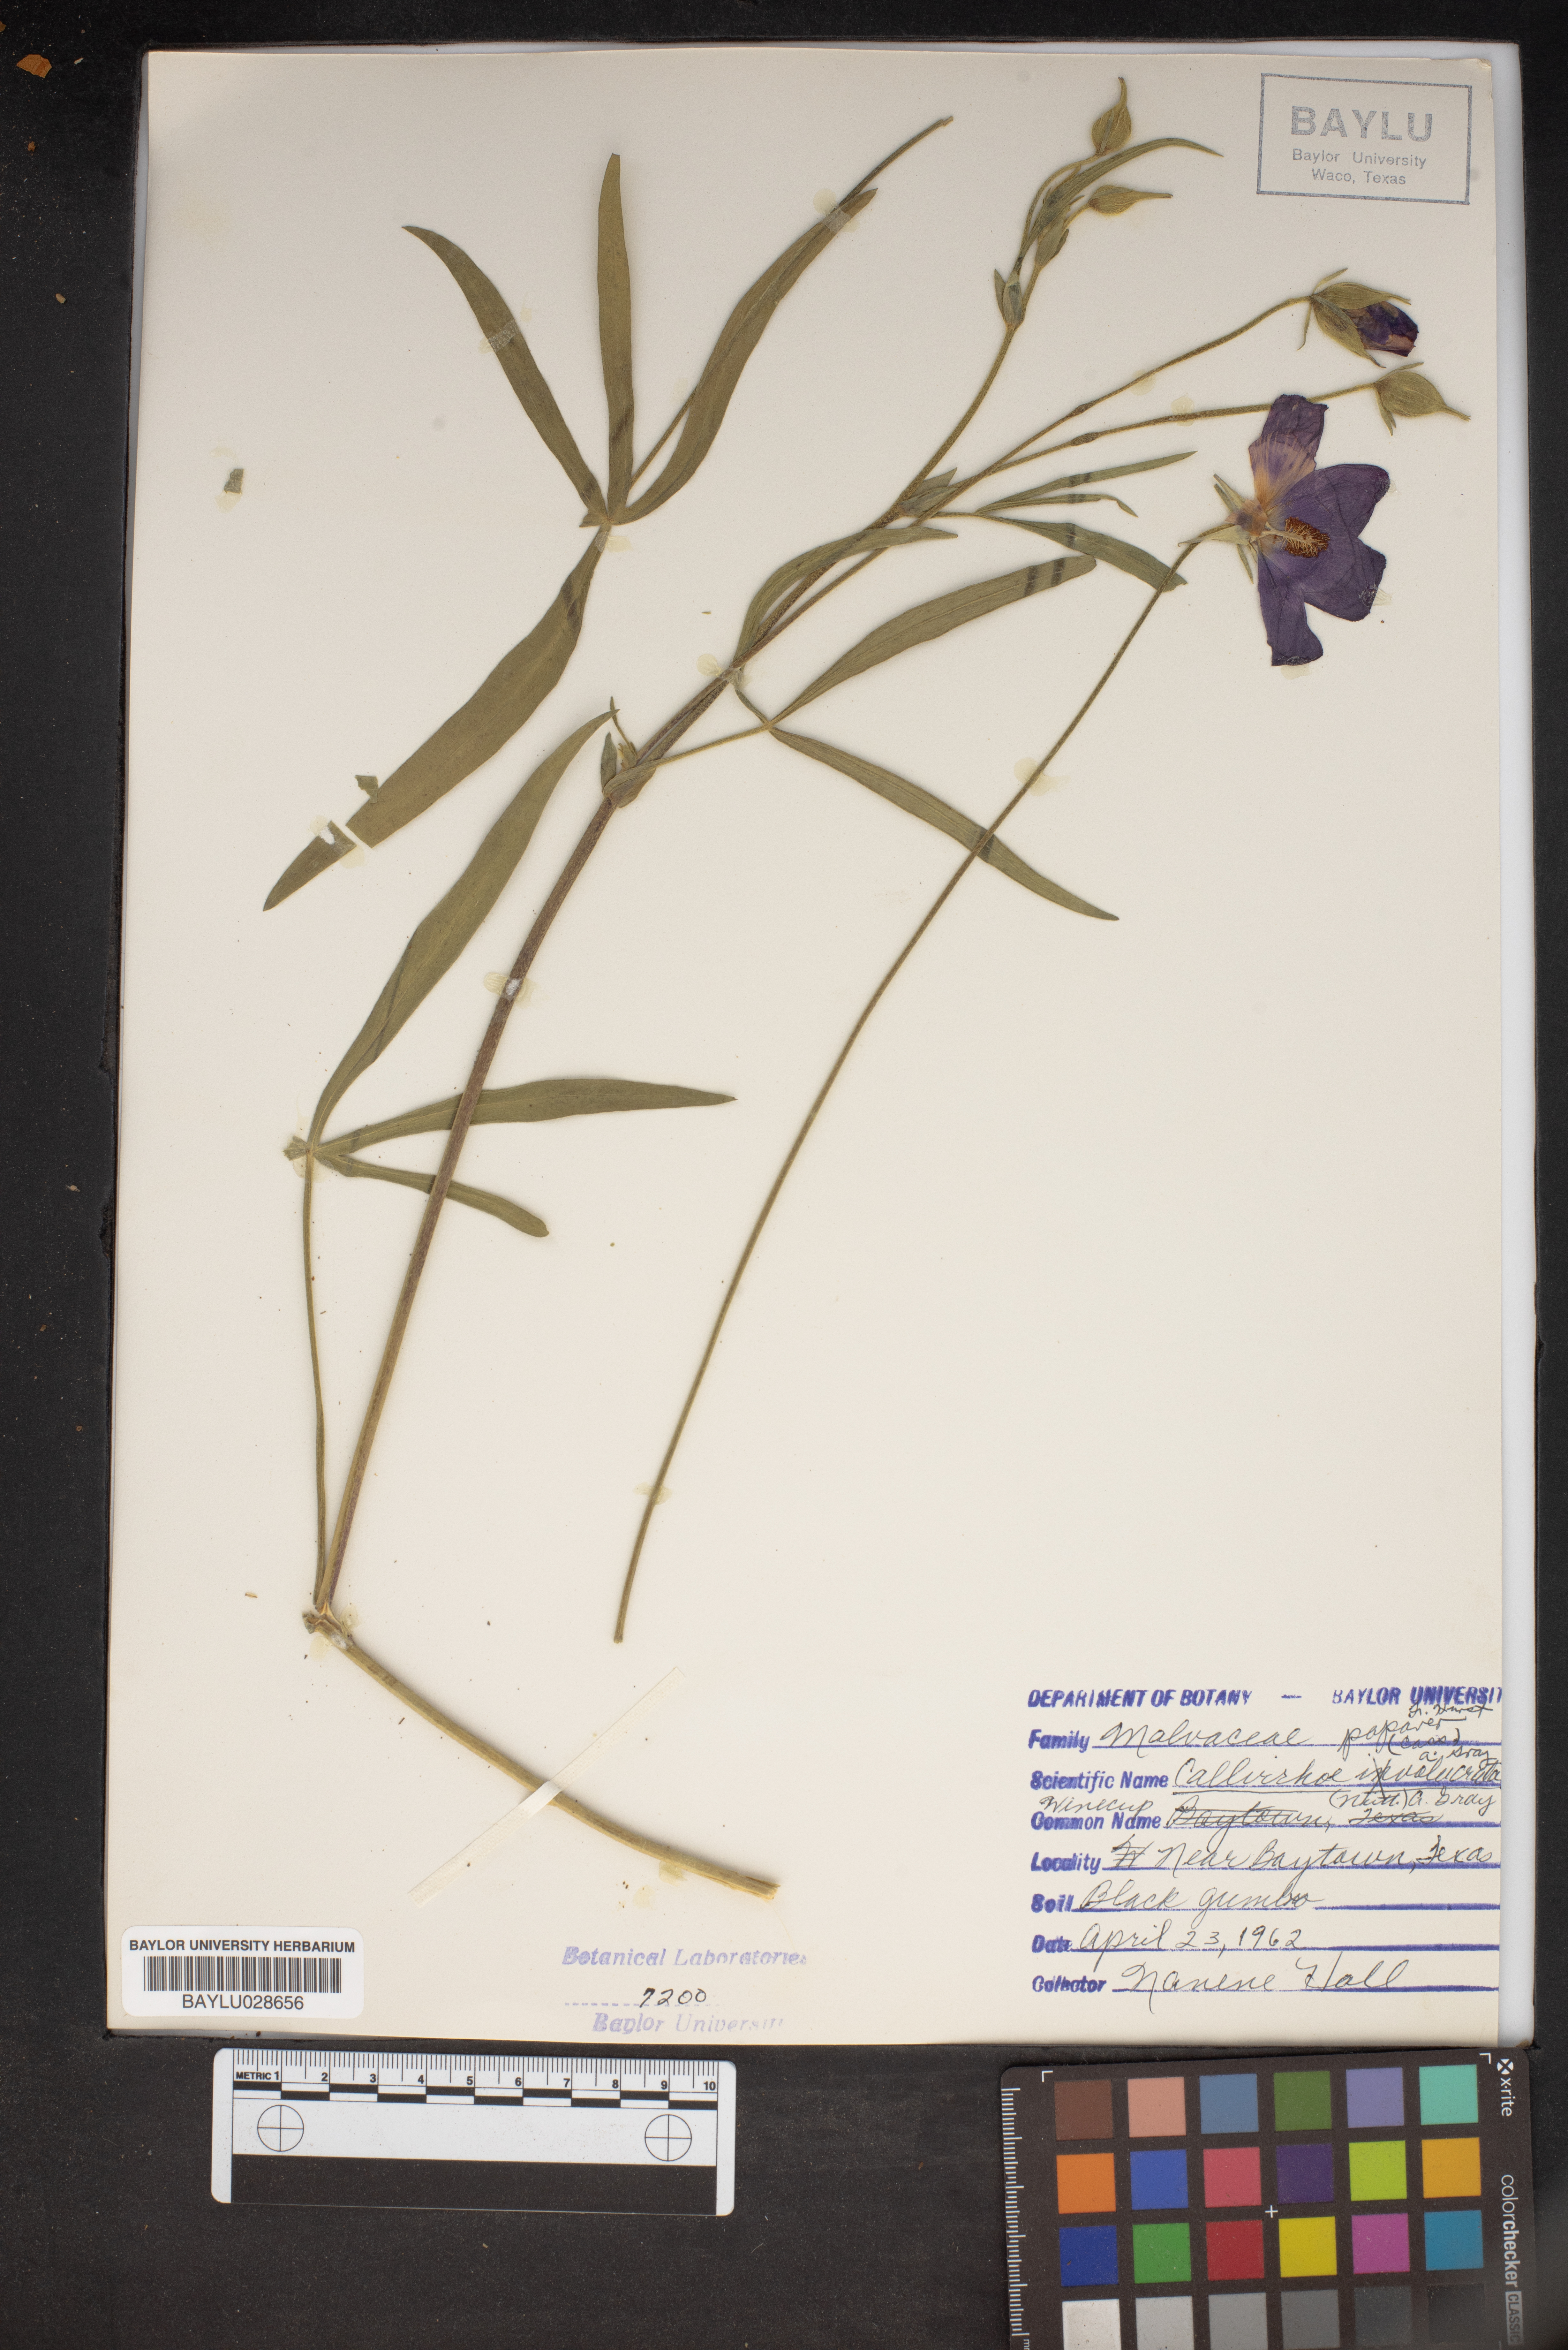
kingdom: Plantae
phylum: Tracheophyta
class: Magnoliopsida
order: Malvales
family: Malvaceae
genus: Callirhoe
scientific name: Callirhoe papaver
